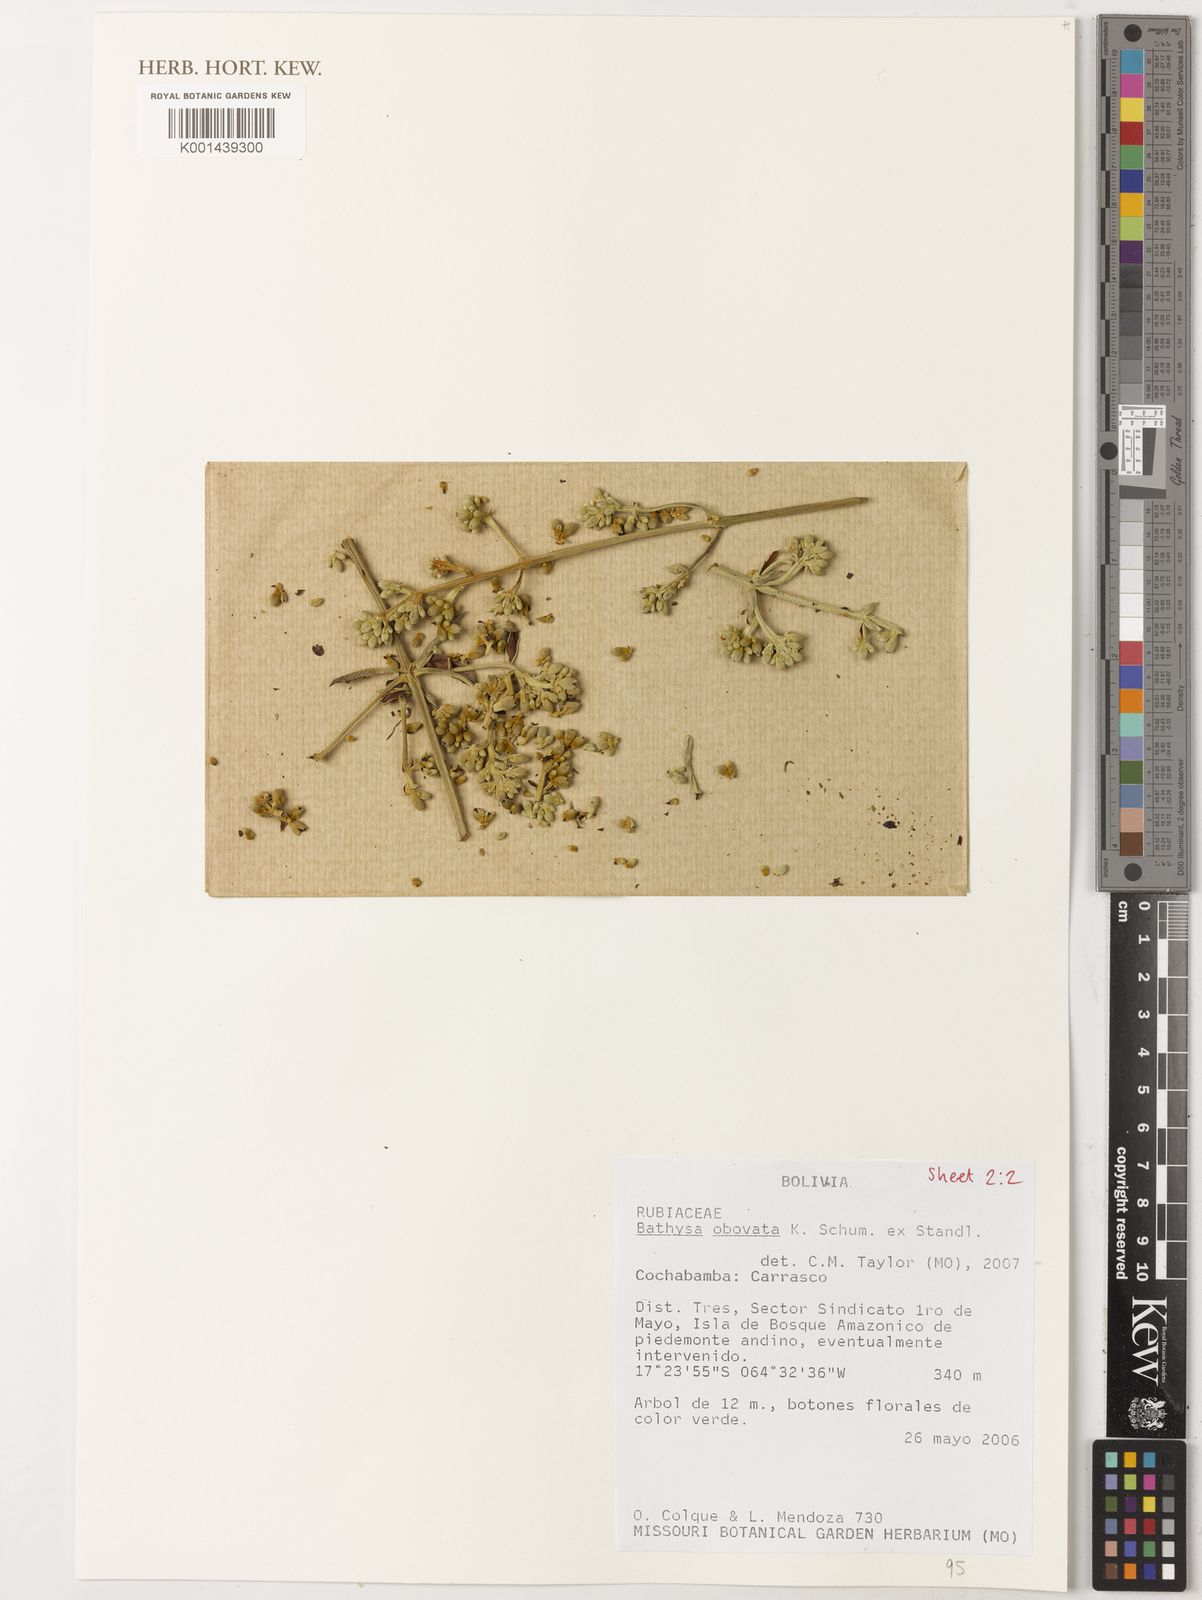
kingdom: Plantae
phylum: Tracheophyta
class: Magnoliopsida
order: Gentianales
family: Rubiaceae
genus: Schizocalyx
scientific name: Schizocalyx obovatus
